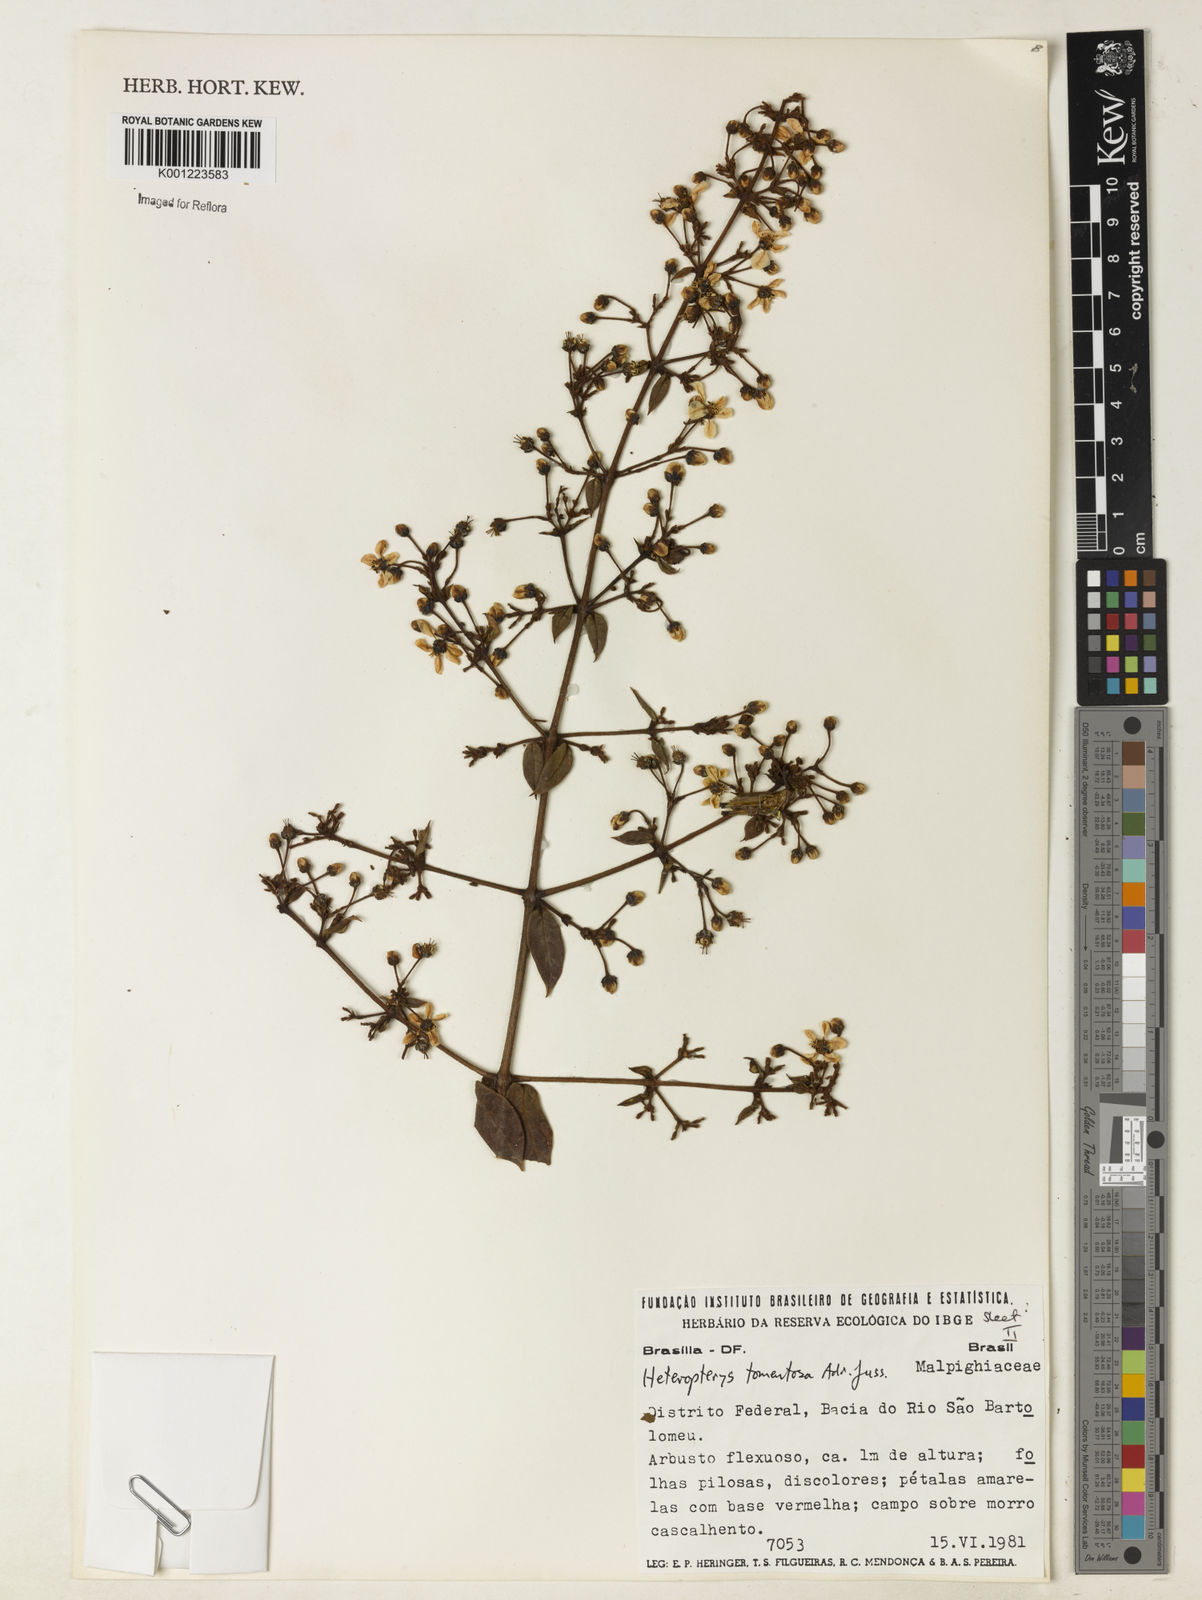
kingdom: Plantae
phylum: Tracheophyta
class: Magnoliopsida
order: Malpighiales
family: Malpighiaceae
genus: Heteropterys
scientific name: Heteropterys tomentosa
